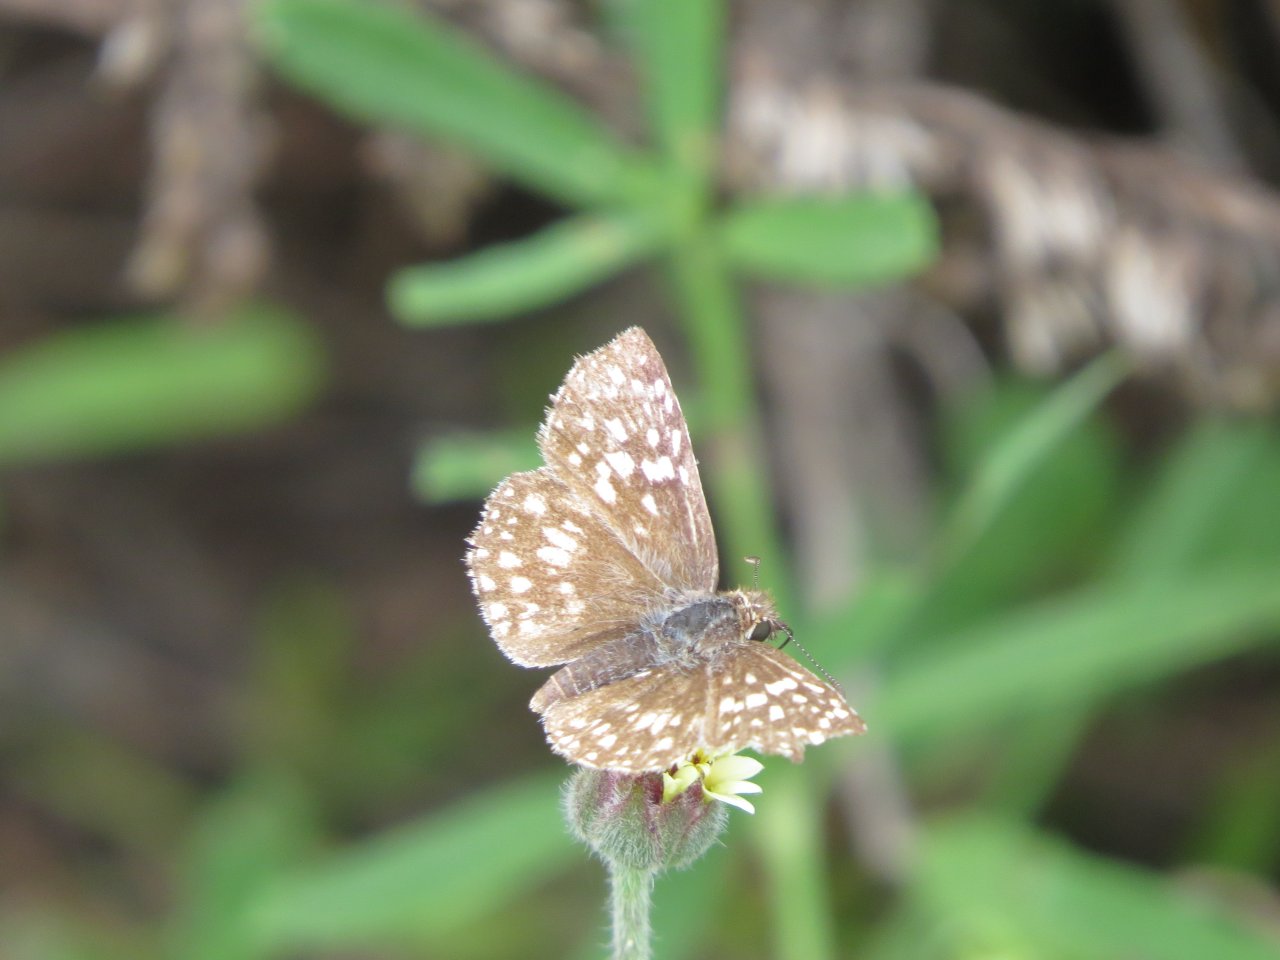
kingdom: Animalia
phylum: Arthropoda
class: Insecta
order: Lepidoptera
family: Hesperiidae
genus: Pyrgus
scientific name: Pyrgus communis
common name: Common Checkered-Skipper
